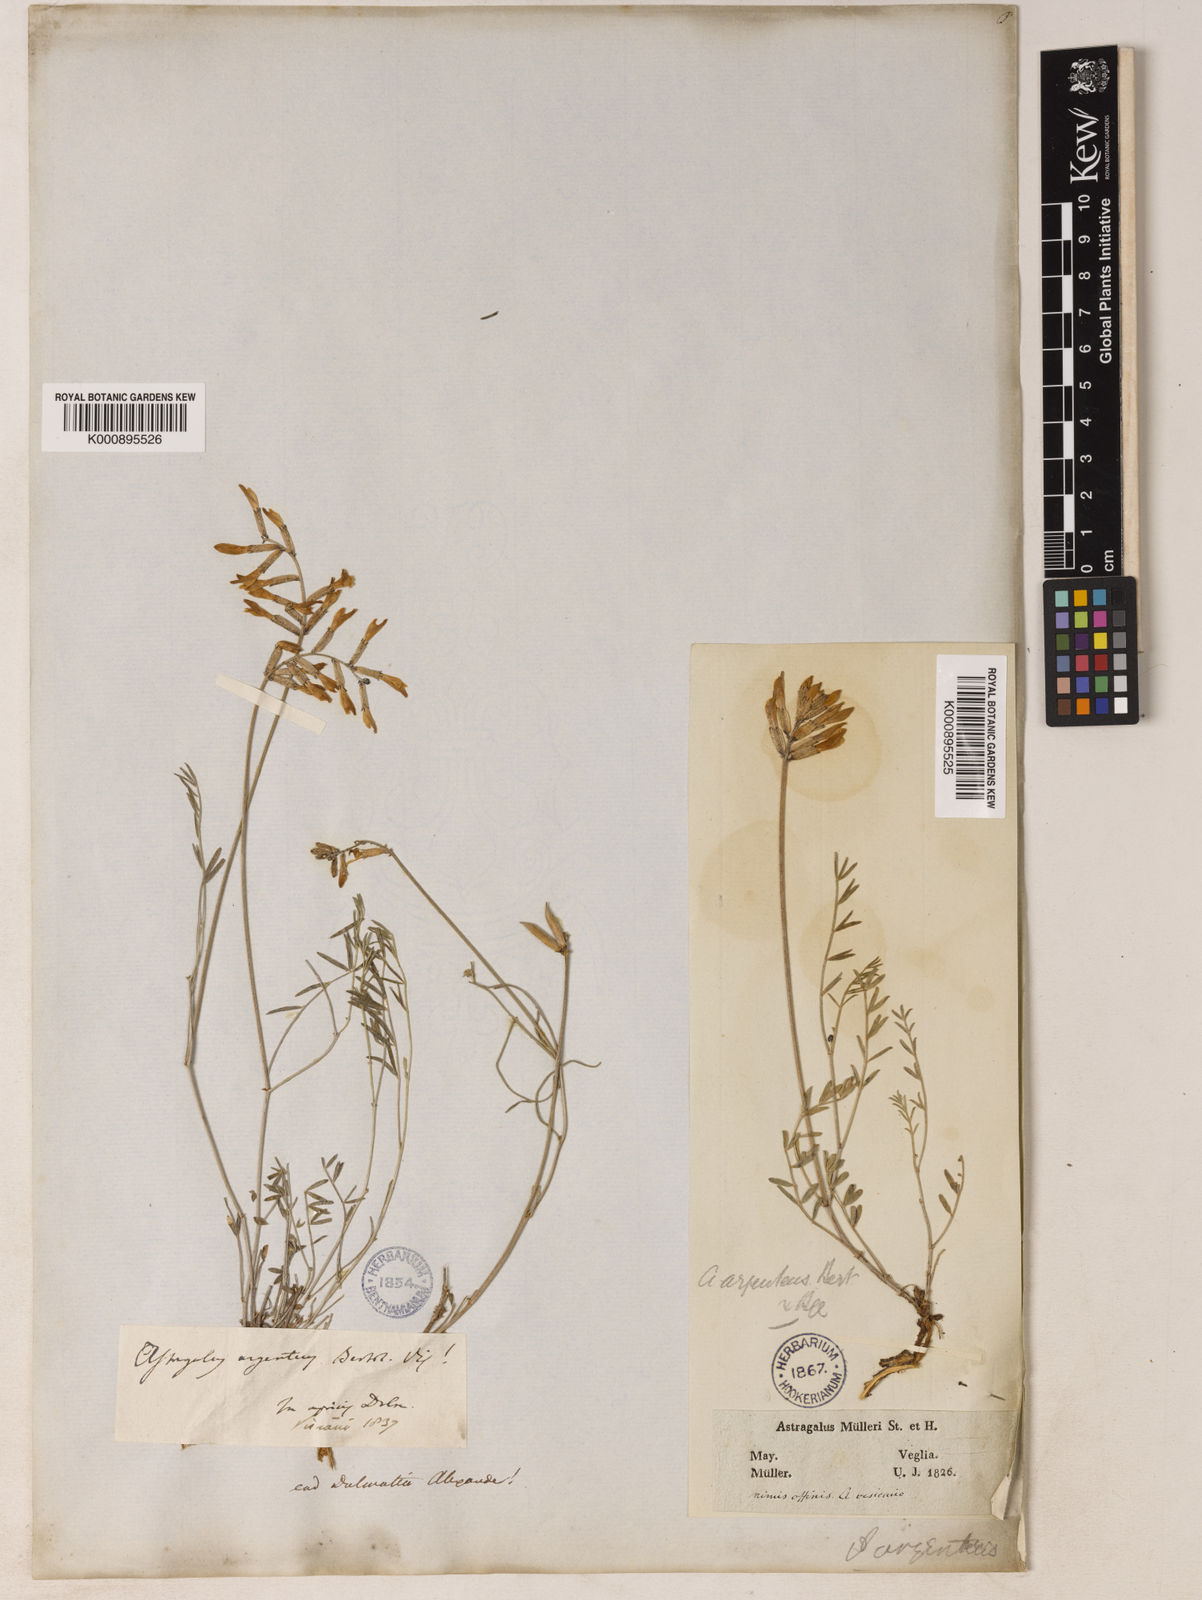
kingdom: Plantae
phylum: Tracheophyta
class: Magnoliopsida
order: Fabales
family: Fabaceae
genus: Astragalus
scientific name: Astragalus
